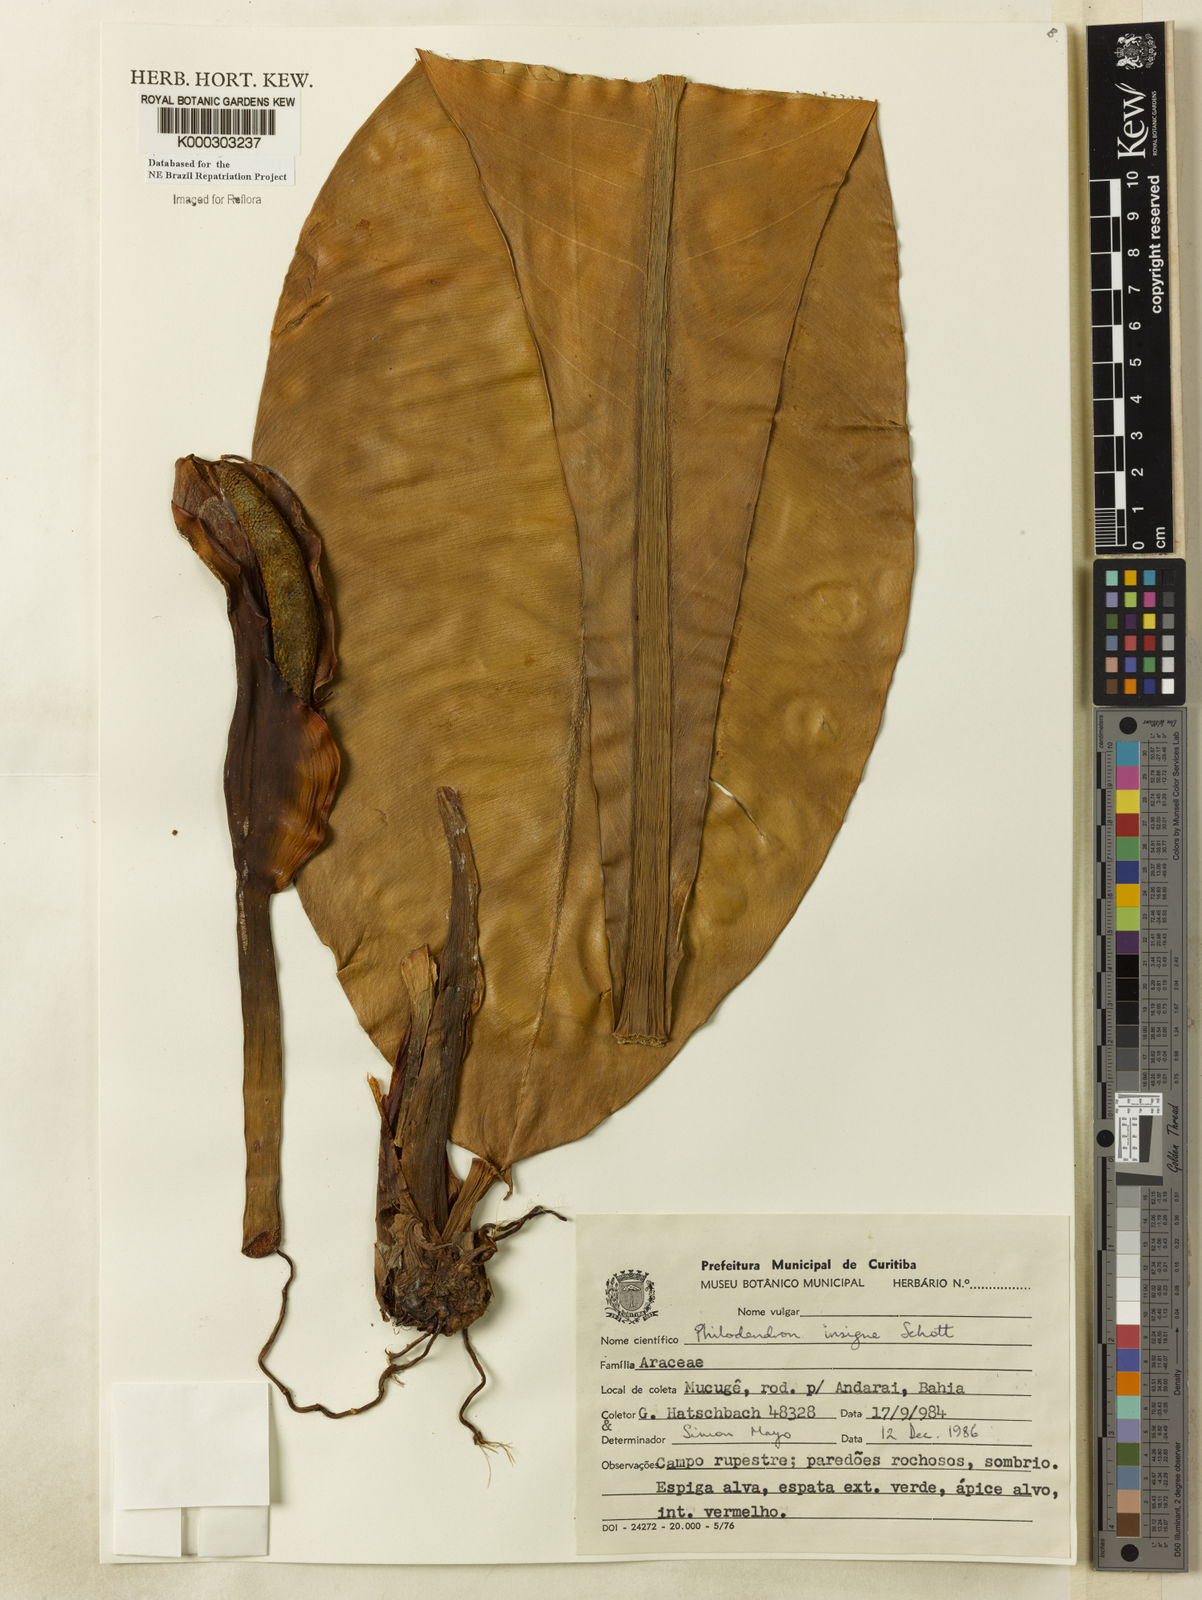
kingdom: Plantae
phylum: Tracheophyta
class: Liliopsida
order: Alismatales
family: Araceae
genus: Philodendron
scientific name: Philodendron insigne
